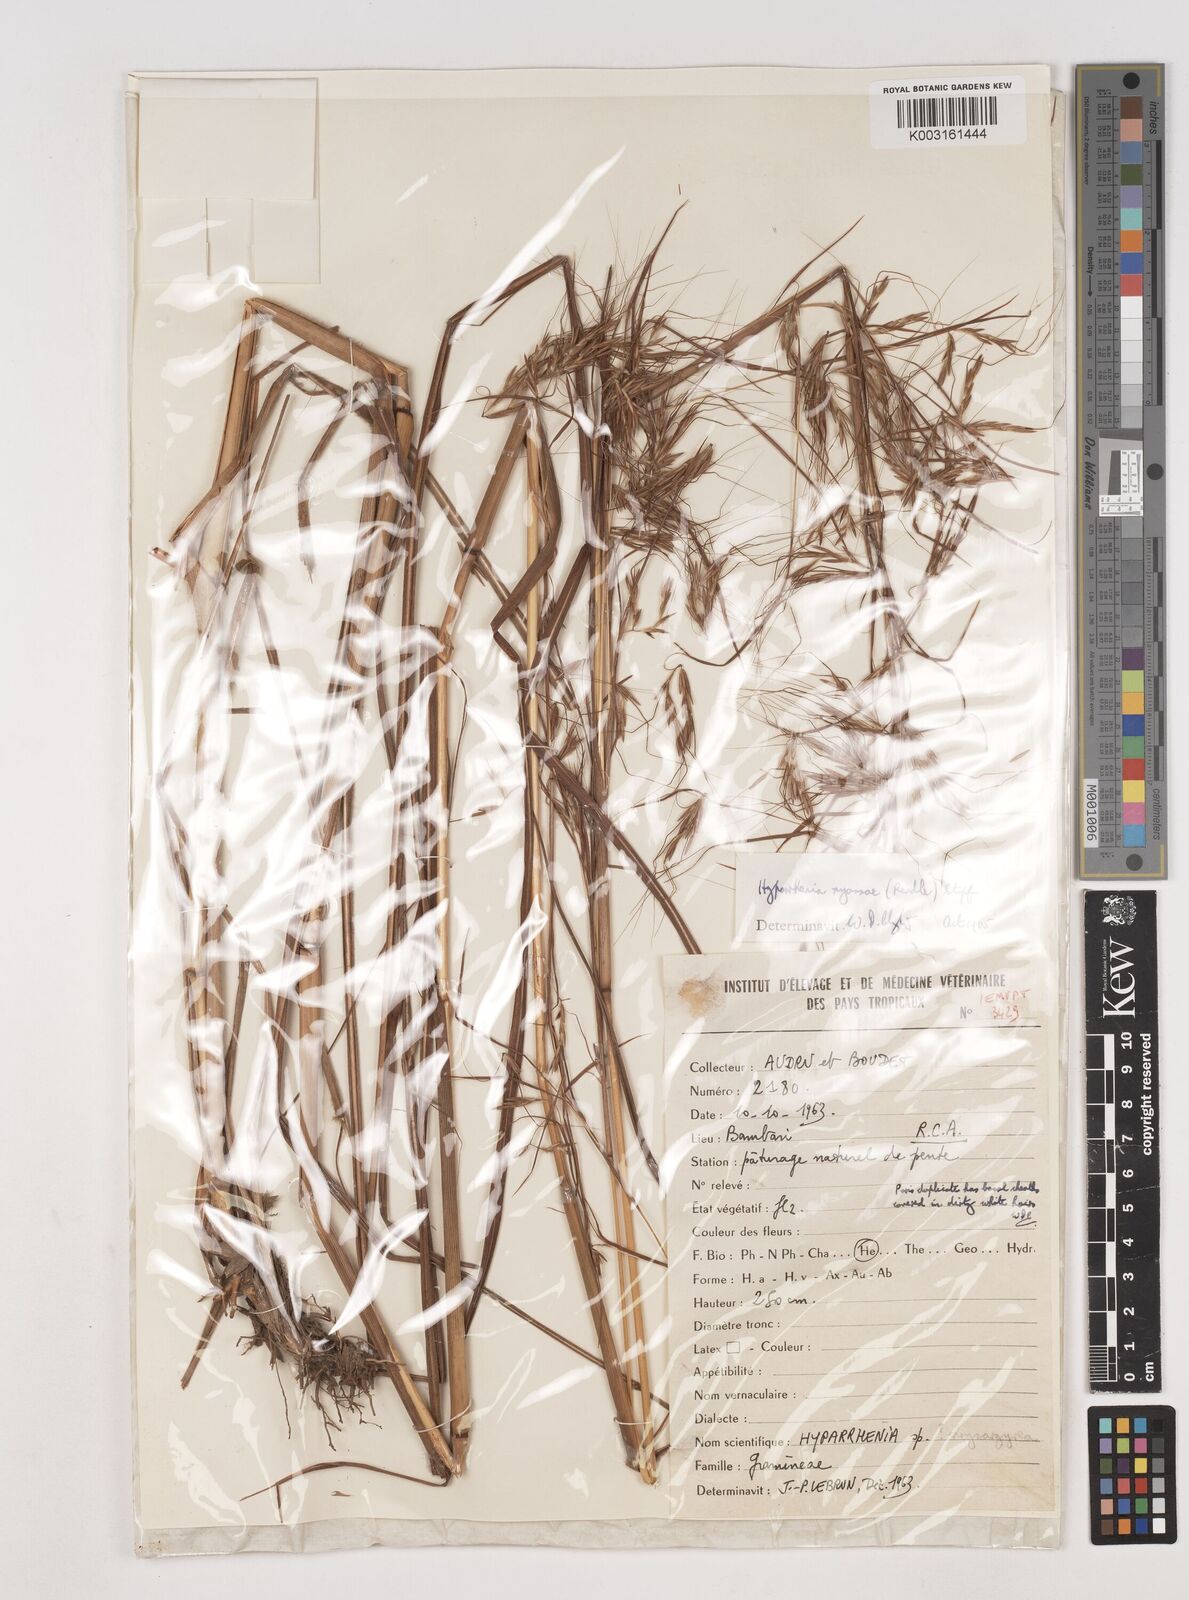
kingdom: Plantae
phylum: Tracheophyta
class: Liliopsida
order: Poales
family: Poaceae
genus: Hyparrhenia
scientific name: Hyparrhenia nyassae
